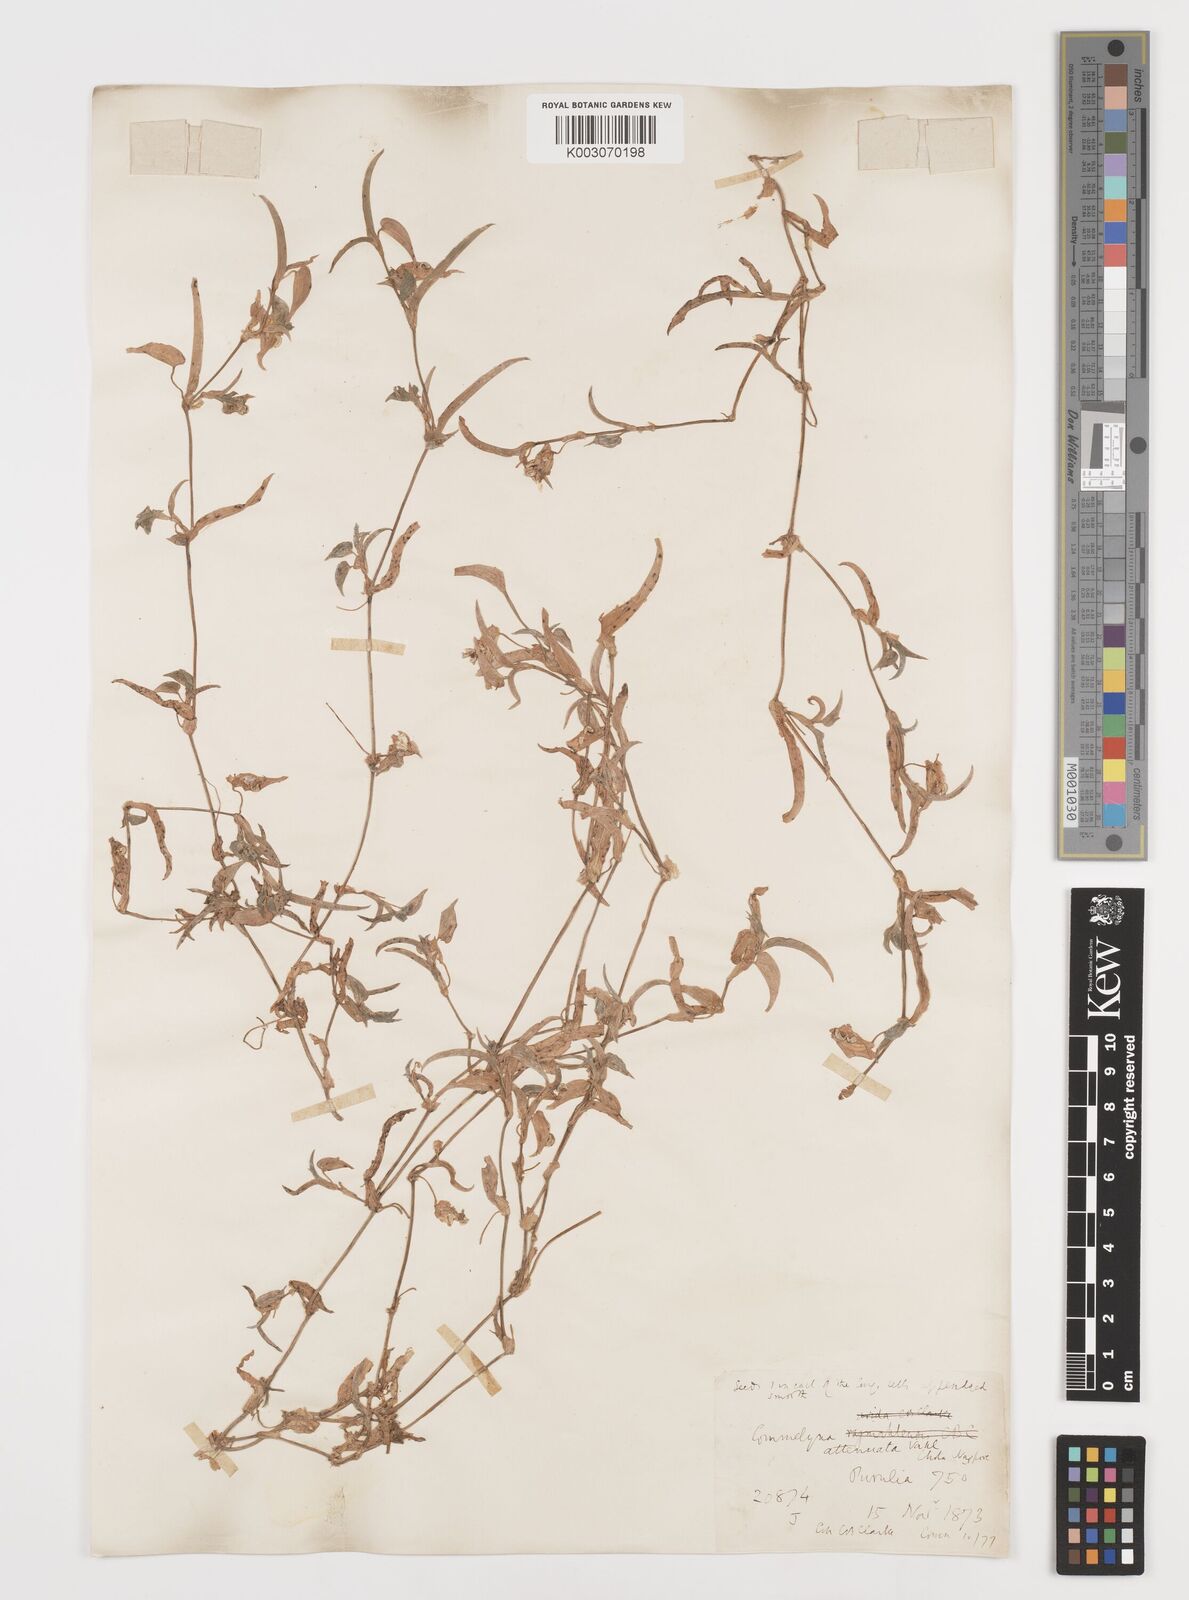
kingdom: Plantae
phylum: Tracheophyta
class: Liliopsida
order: Commelinales
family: Commelinaceae
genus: Commelina
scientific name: Commelina attenuata
